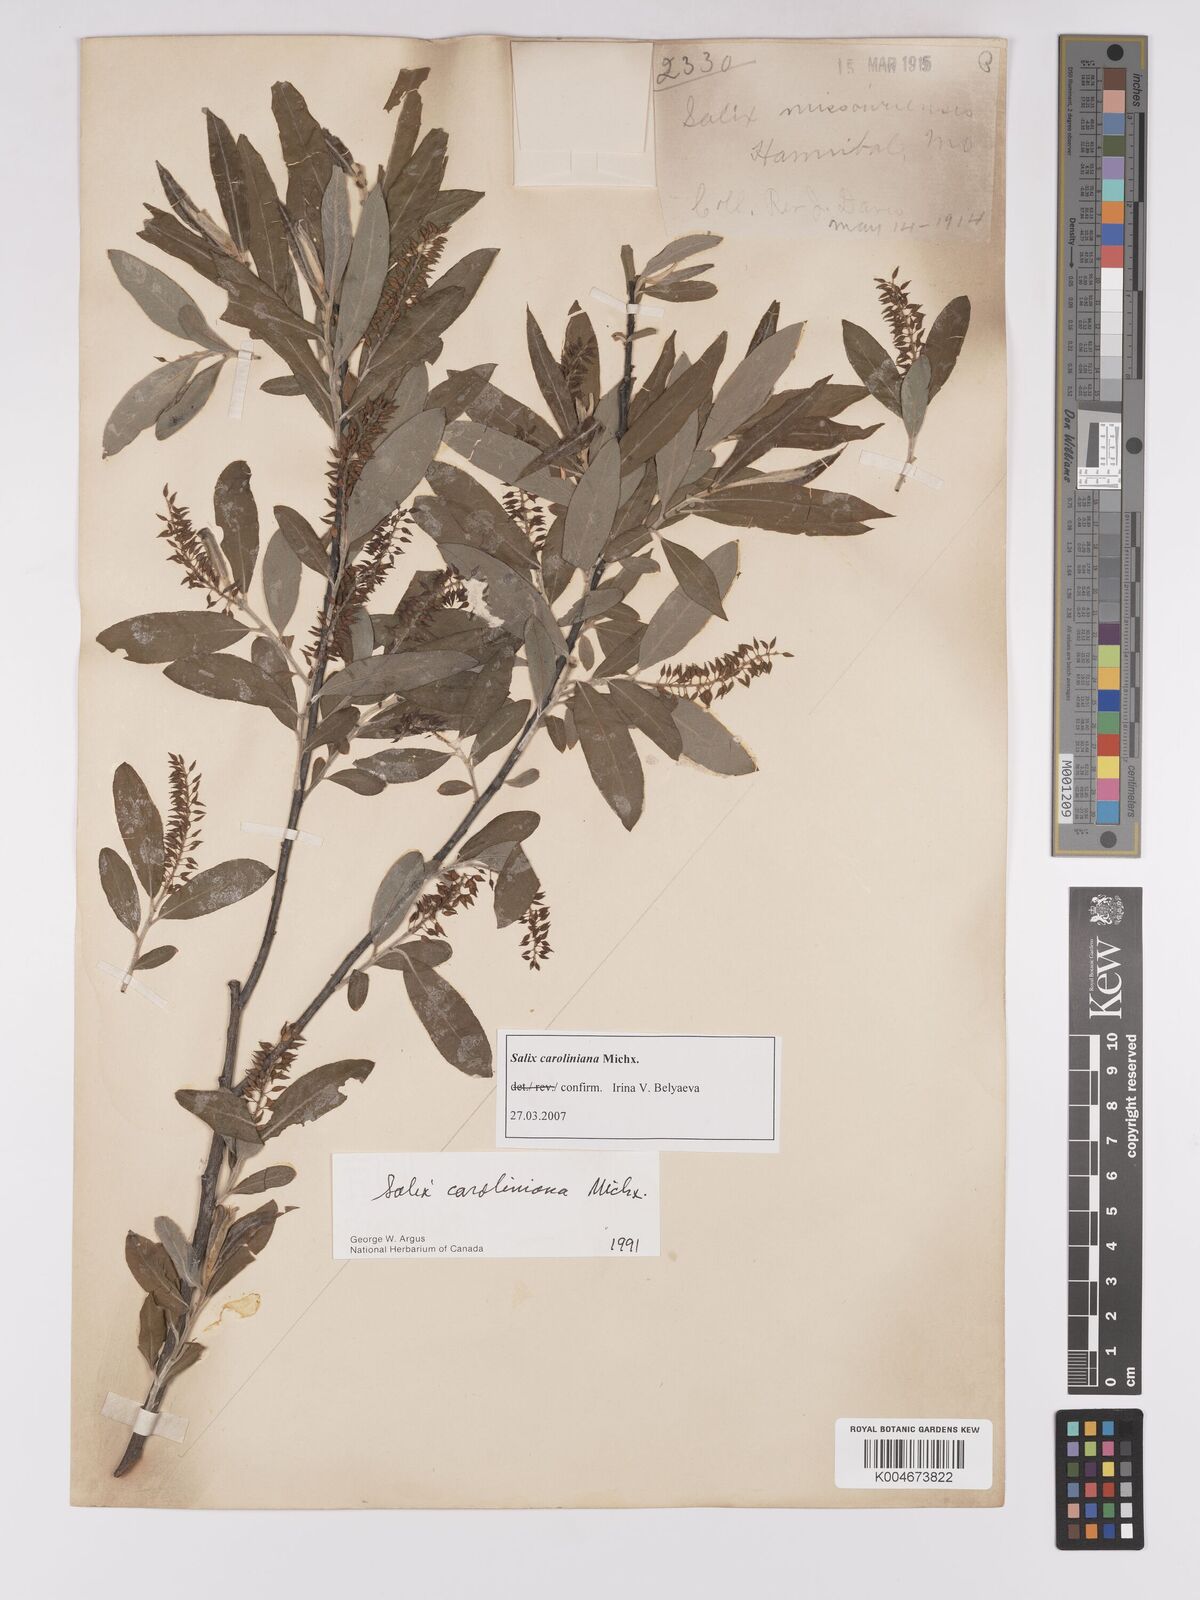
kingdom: Plantae
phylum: Tracheophyta
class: Magnoliopsida
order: Malpighiales
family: Salicaceae
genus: Salix
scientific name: Salix caroliniana
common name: Carolina willow
